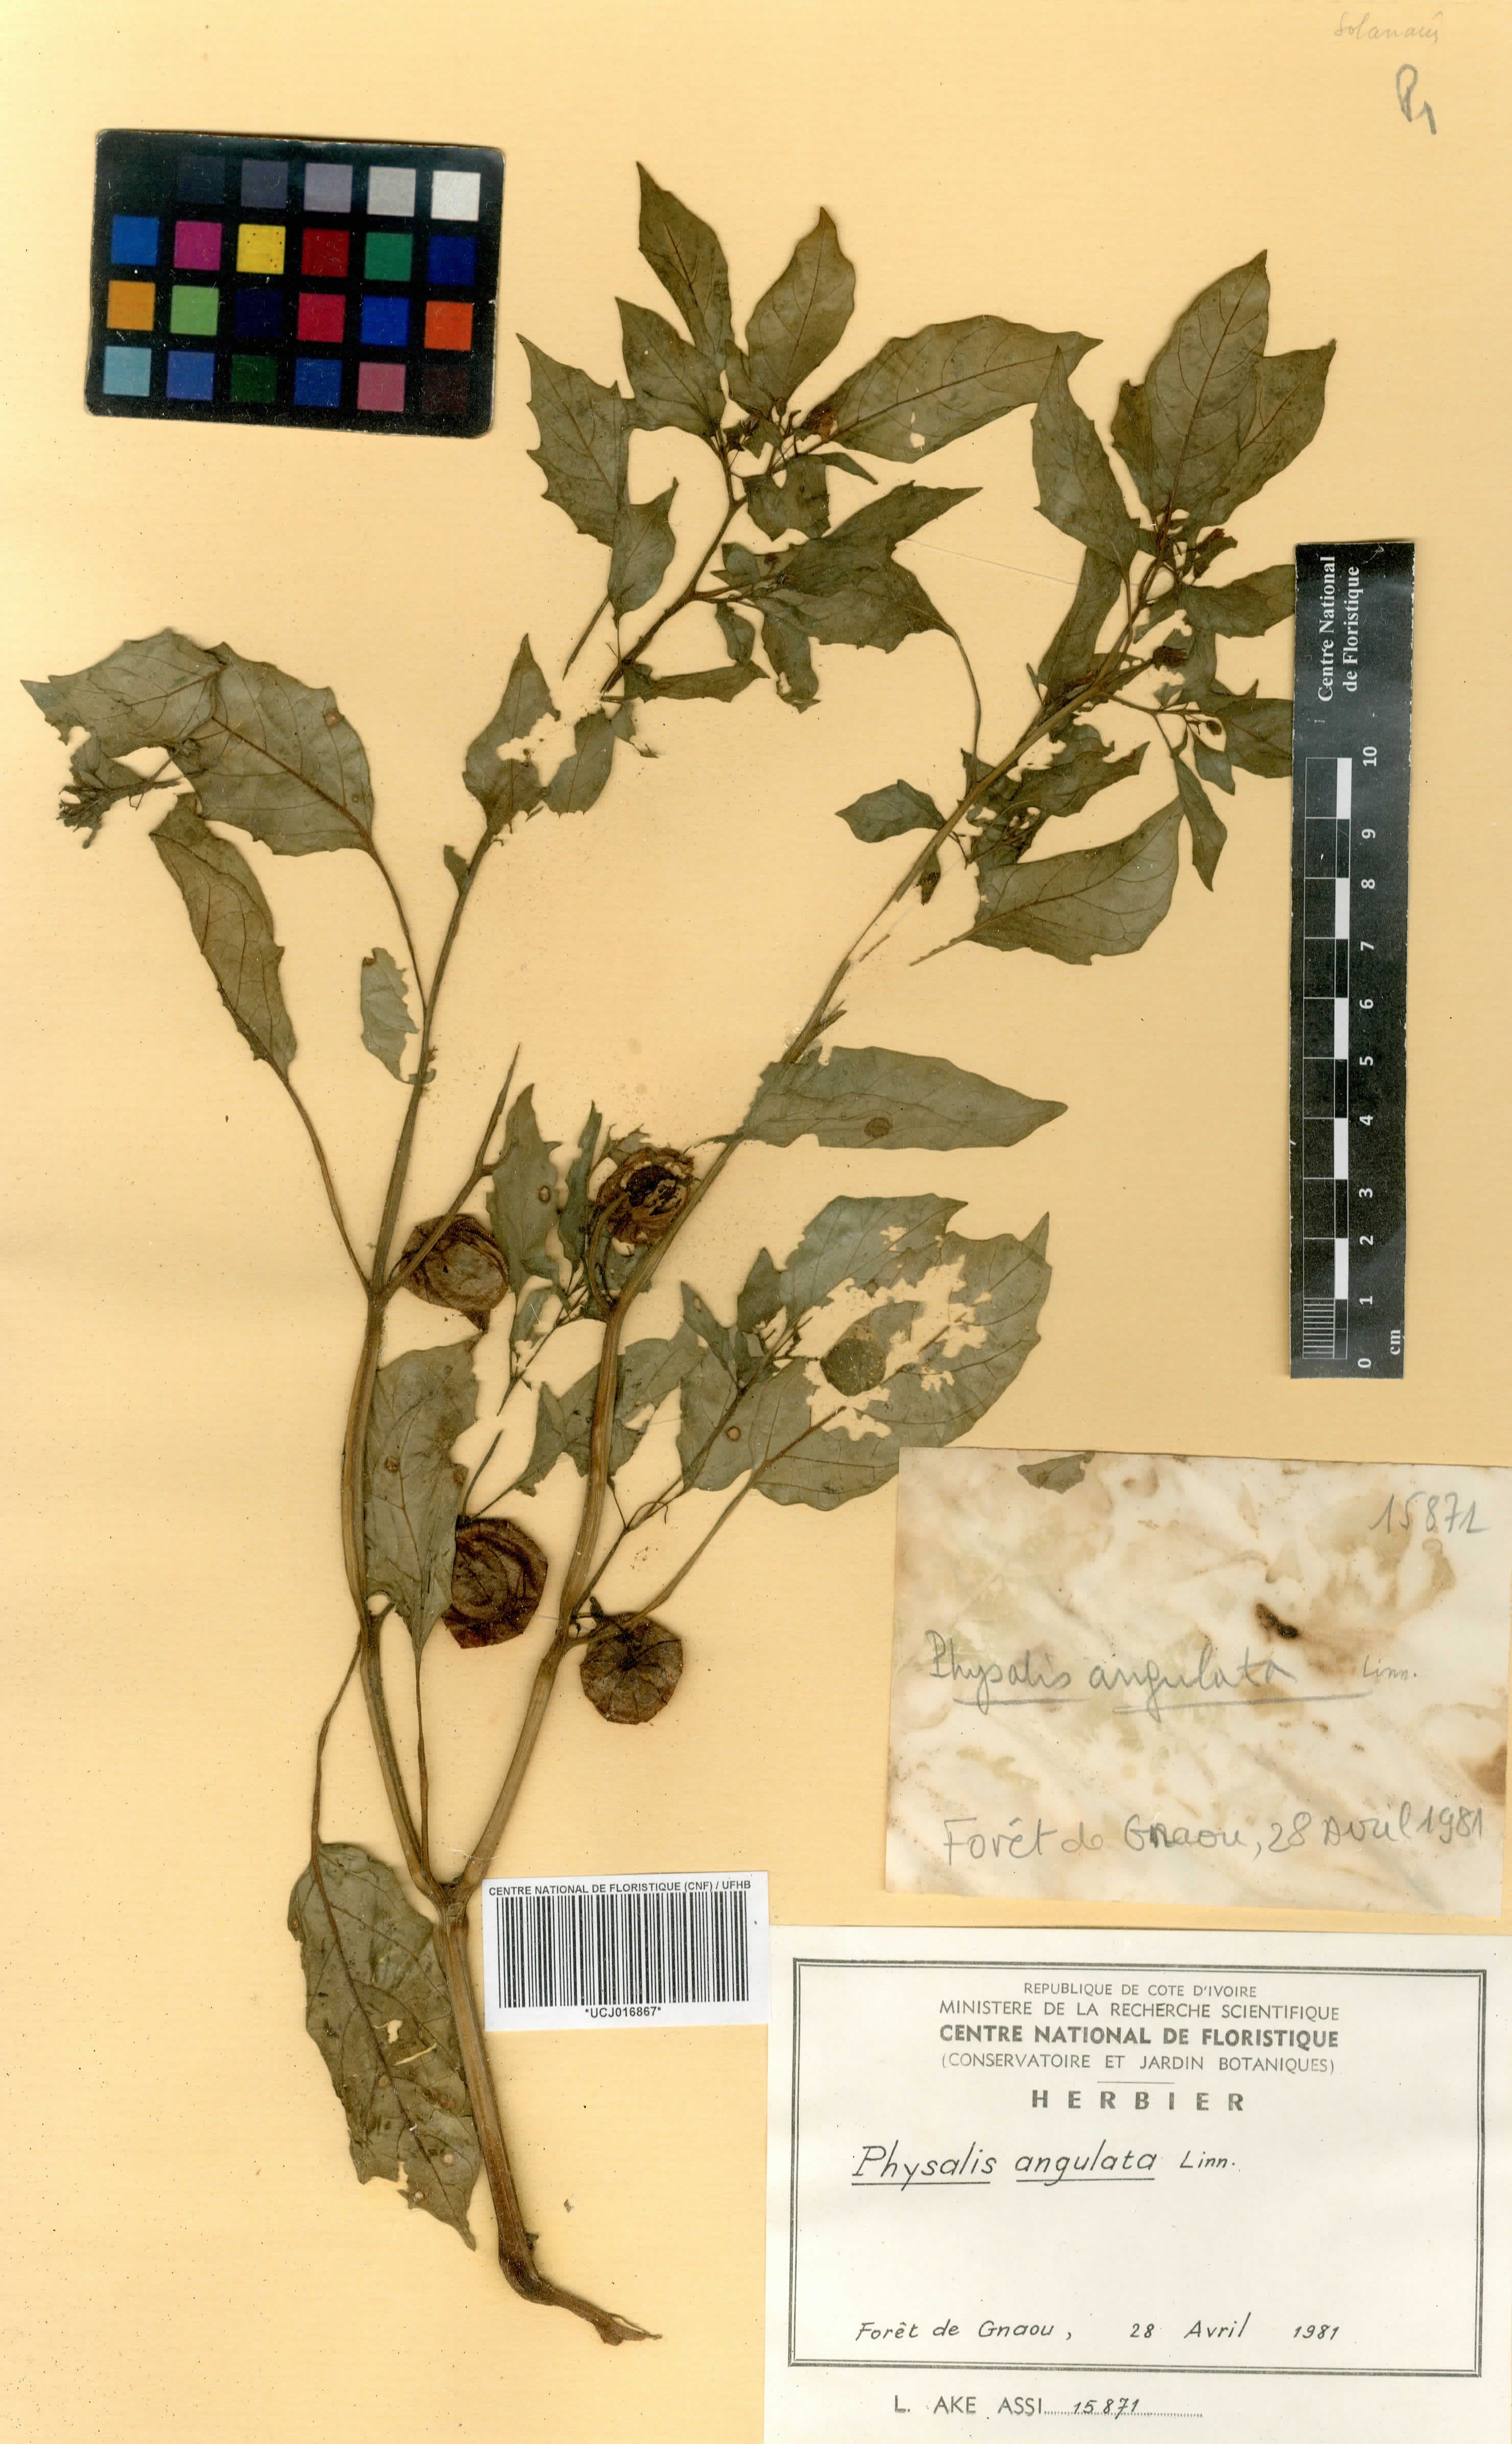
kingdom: Plantae
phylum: Tracheophyta
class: Magnoliopsida
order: Solanales
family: Solanaceae
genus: Physalis
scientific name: Physalis angulata
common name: Angular winter-cherry
